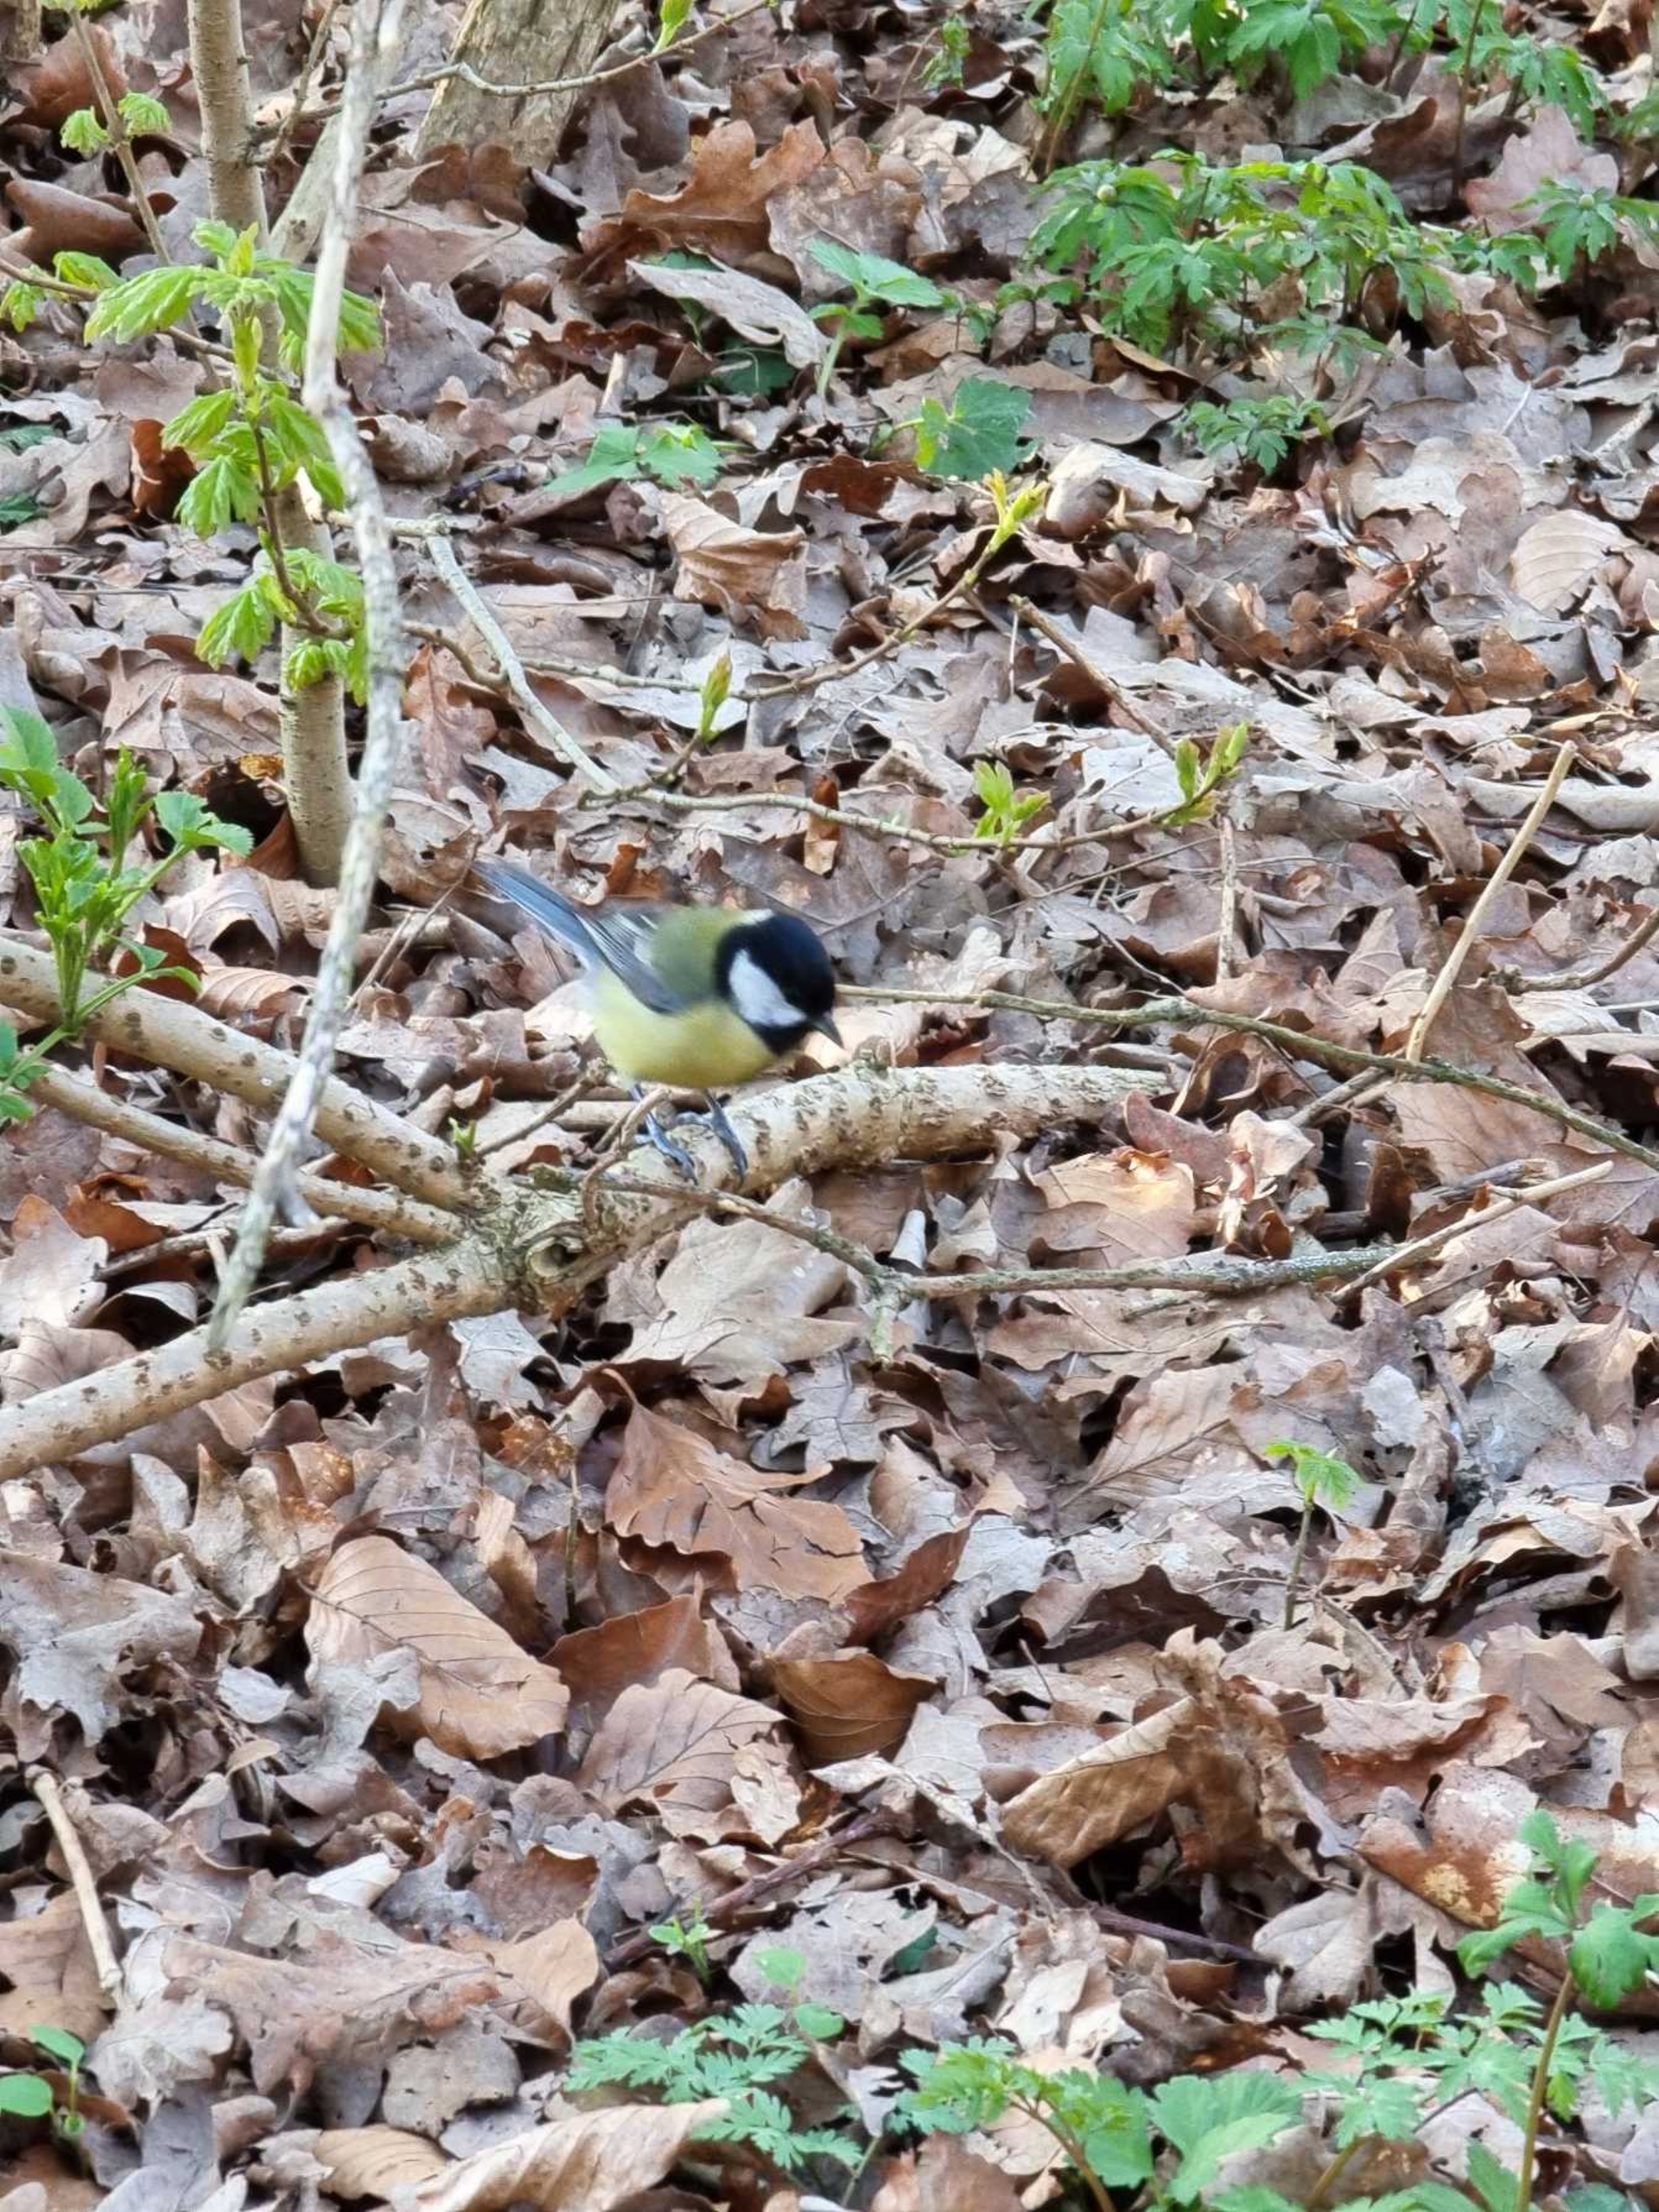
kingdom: Animalia
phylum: Chordata
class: Aves
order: Passeriformes
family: Paridae
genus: Parus
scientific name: Parus major
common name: Musvit
